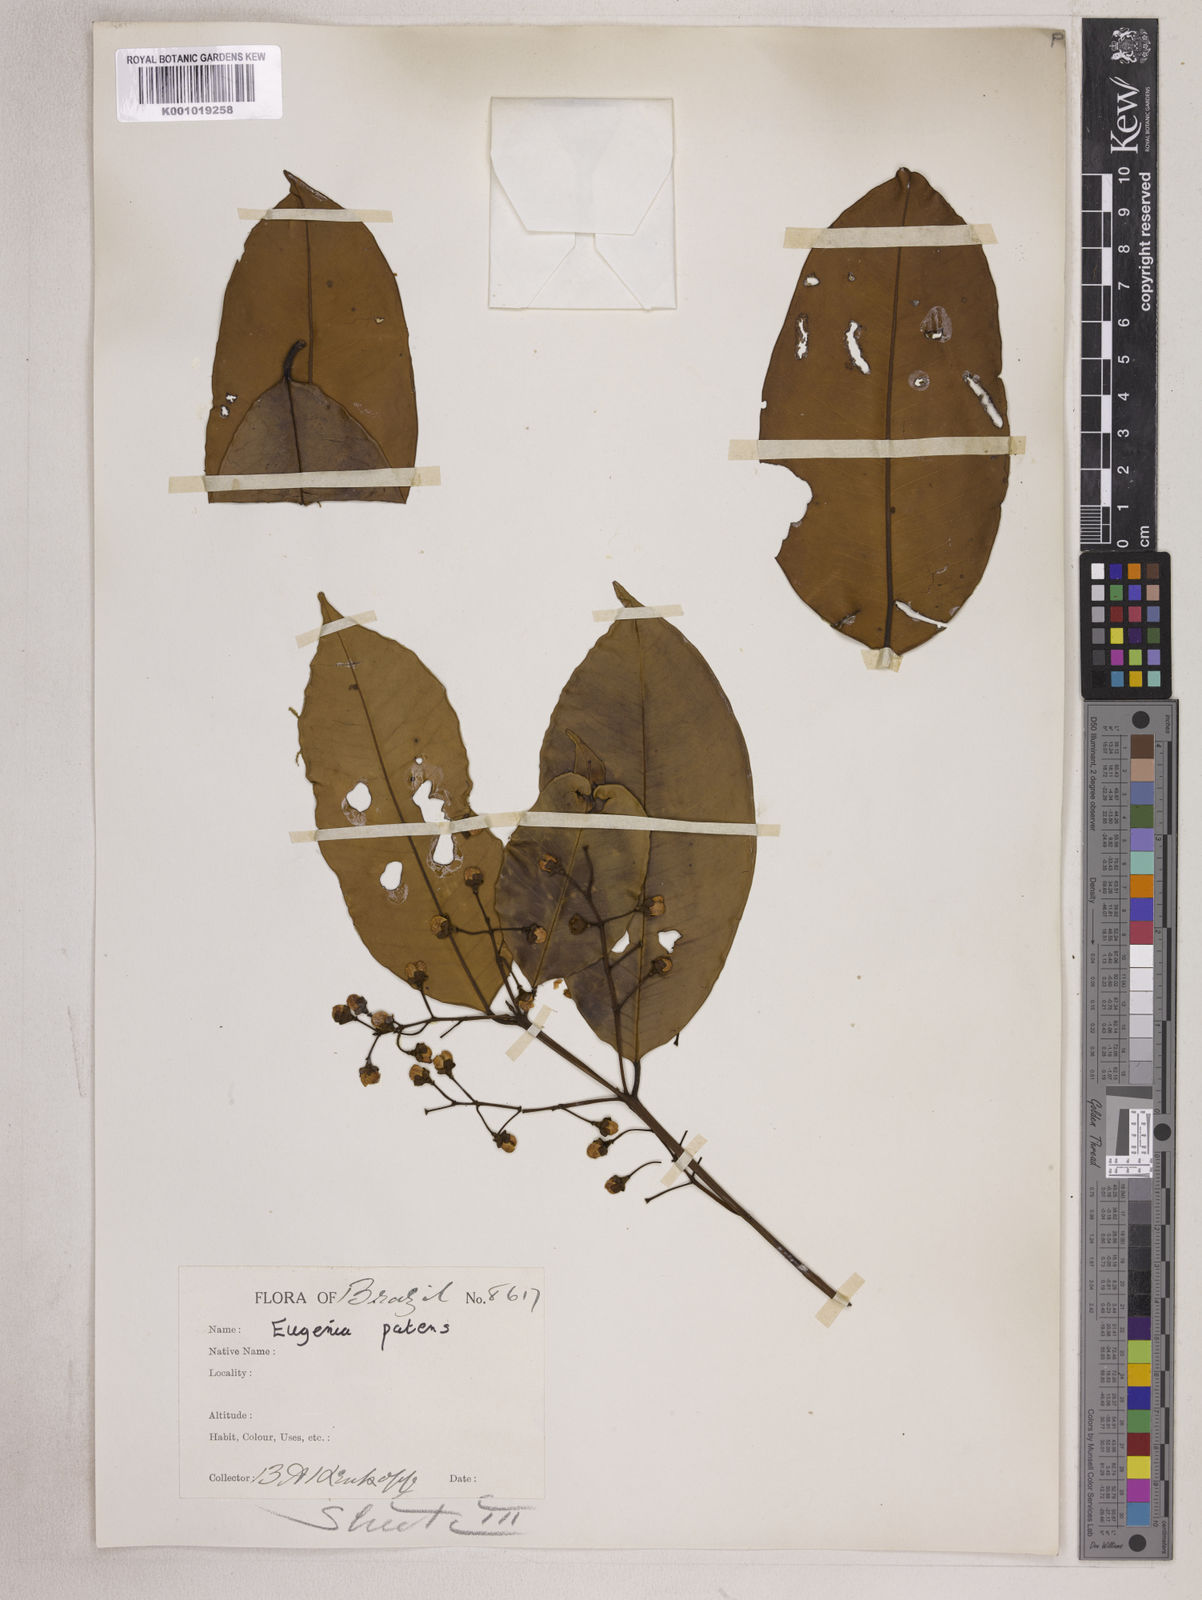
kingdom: Plantae
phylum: Tracheophyta
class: Magnoliopsida
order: Myrtales
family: Myrtaceae
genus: Eugenia
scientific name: Eugenia patens
